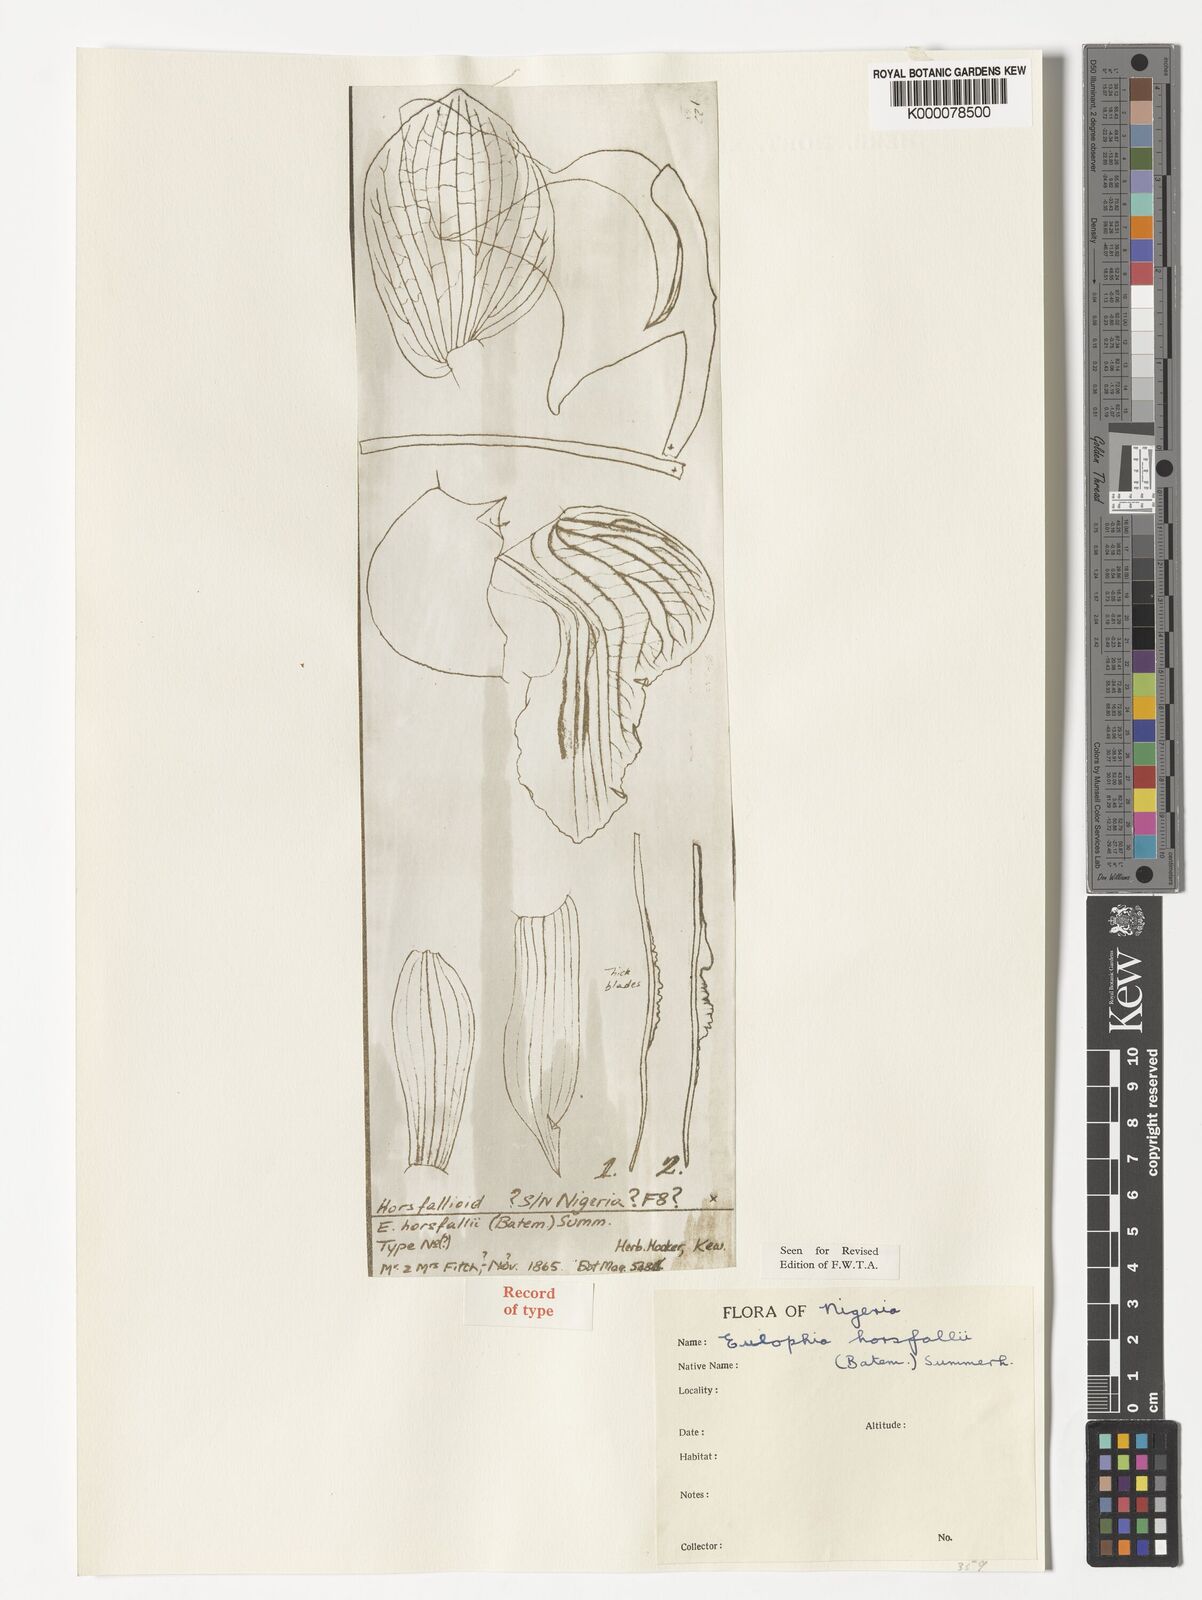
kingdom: Plantae
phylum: Tracheophyta
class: Liliopsida
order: Asparagales
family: Orchidaceae
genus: Eulophia
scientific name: Eulophia horsfallii
